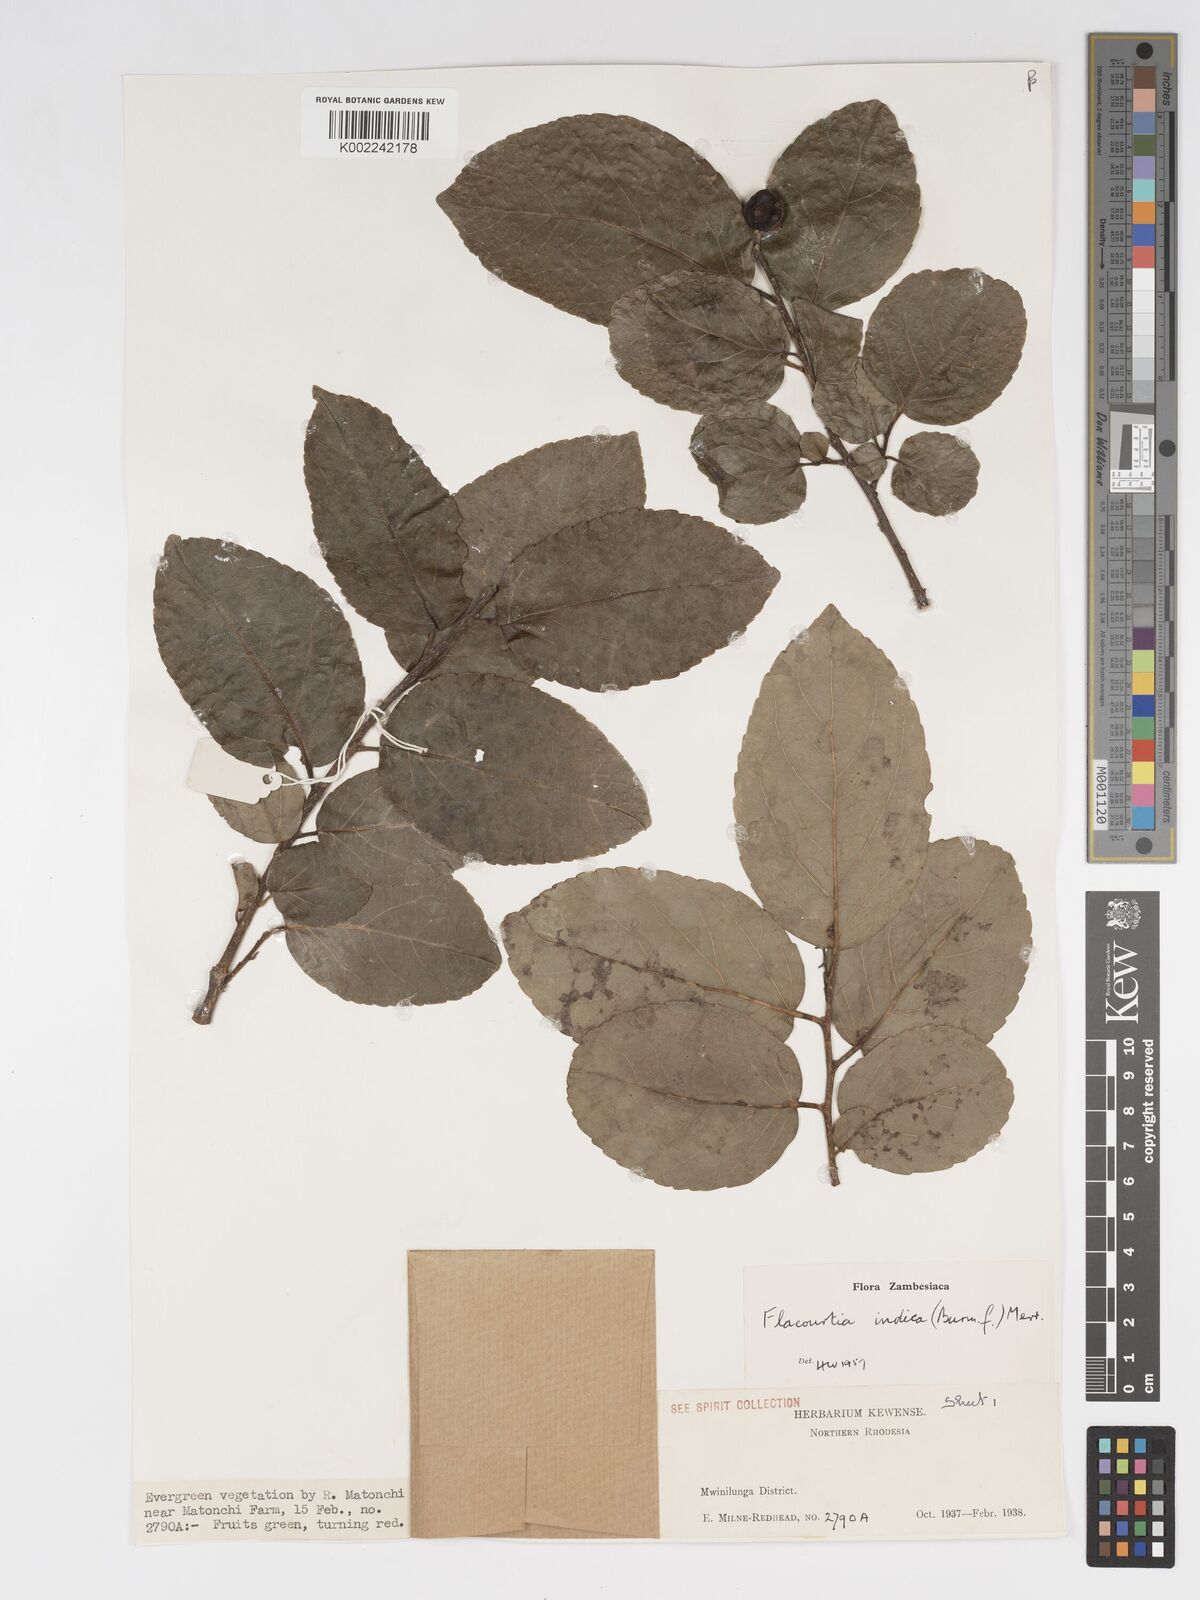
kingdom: Plantae
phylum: Tracheophyta
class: Magnoliopsida
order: Malpighiales
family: Salicaceae
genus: Flacourtia
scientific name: Flacourtia indica
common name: Governor's plum
